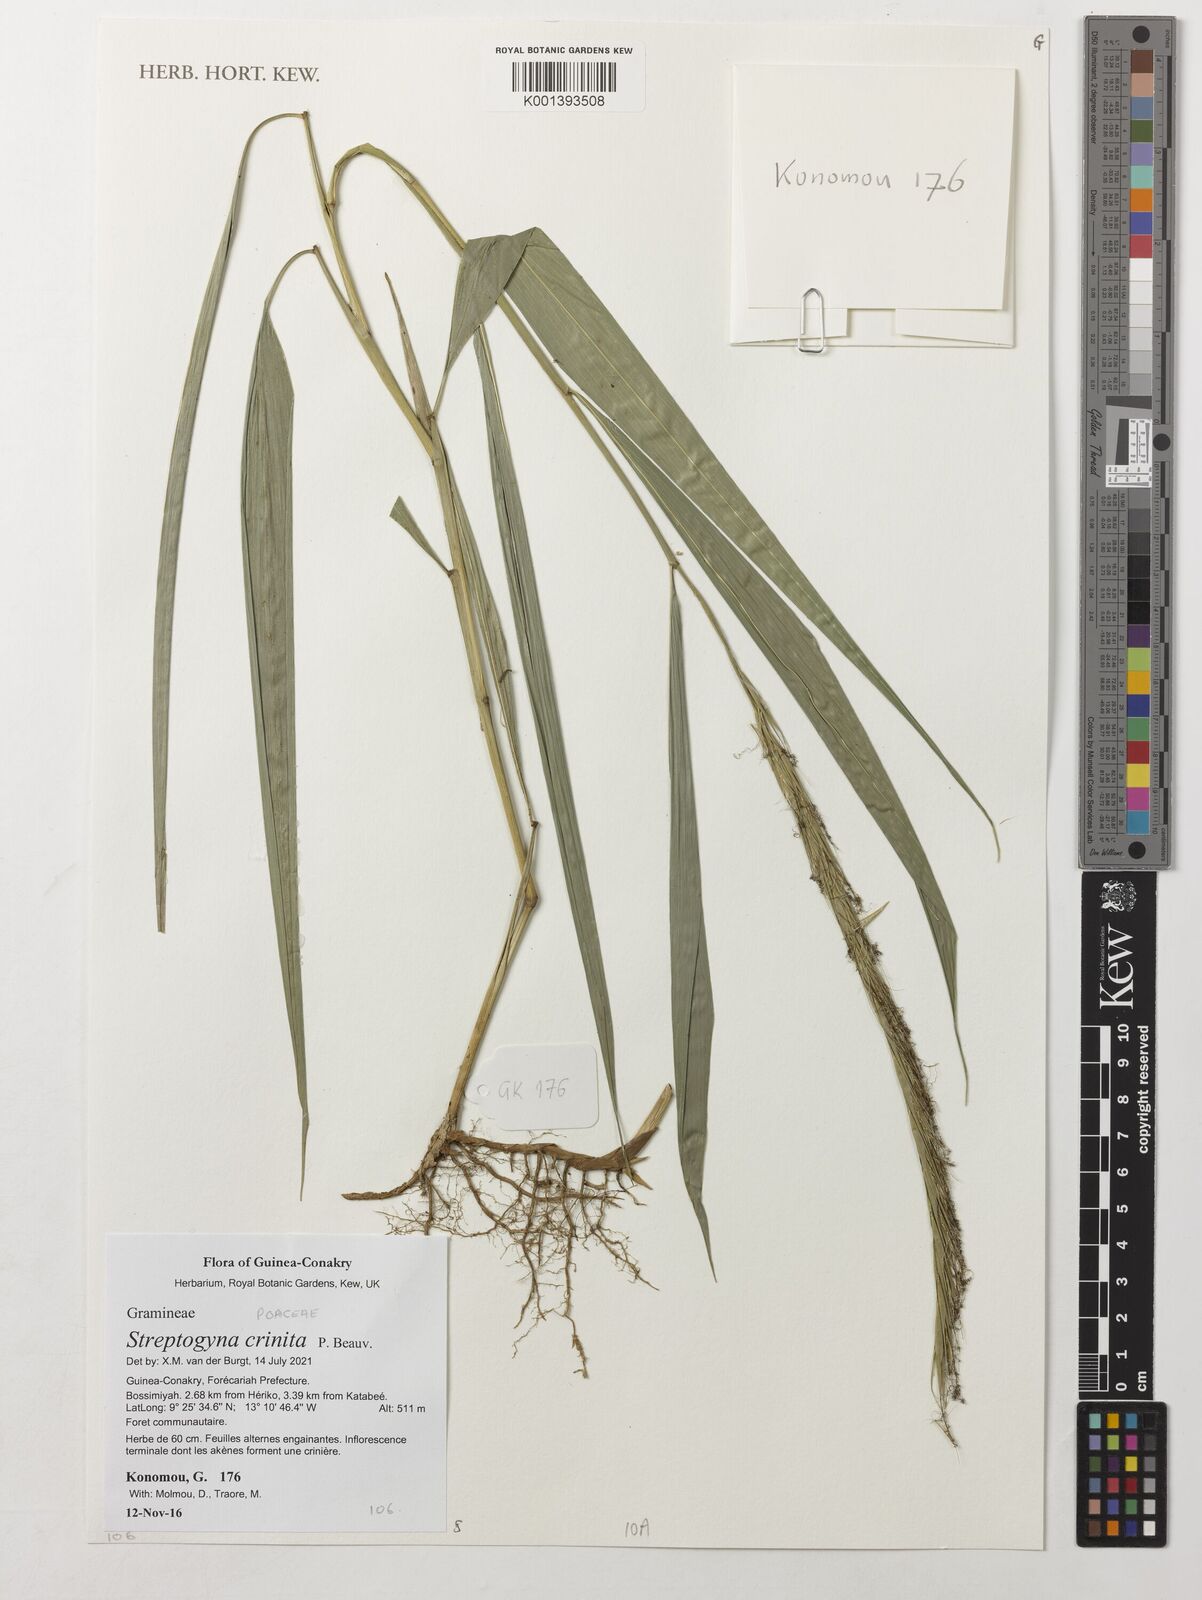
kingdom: Plantae
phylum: Tracheophyta
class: Liliopsida
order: Poales
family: Poaceae
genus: Streptogyna
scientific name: Streptogyna crinita
